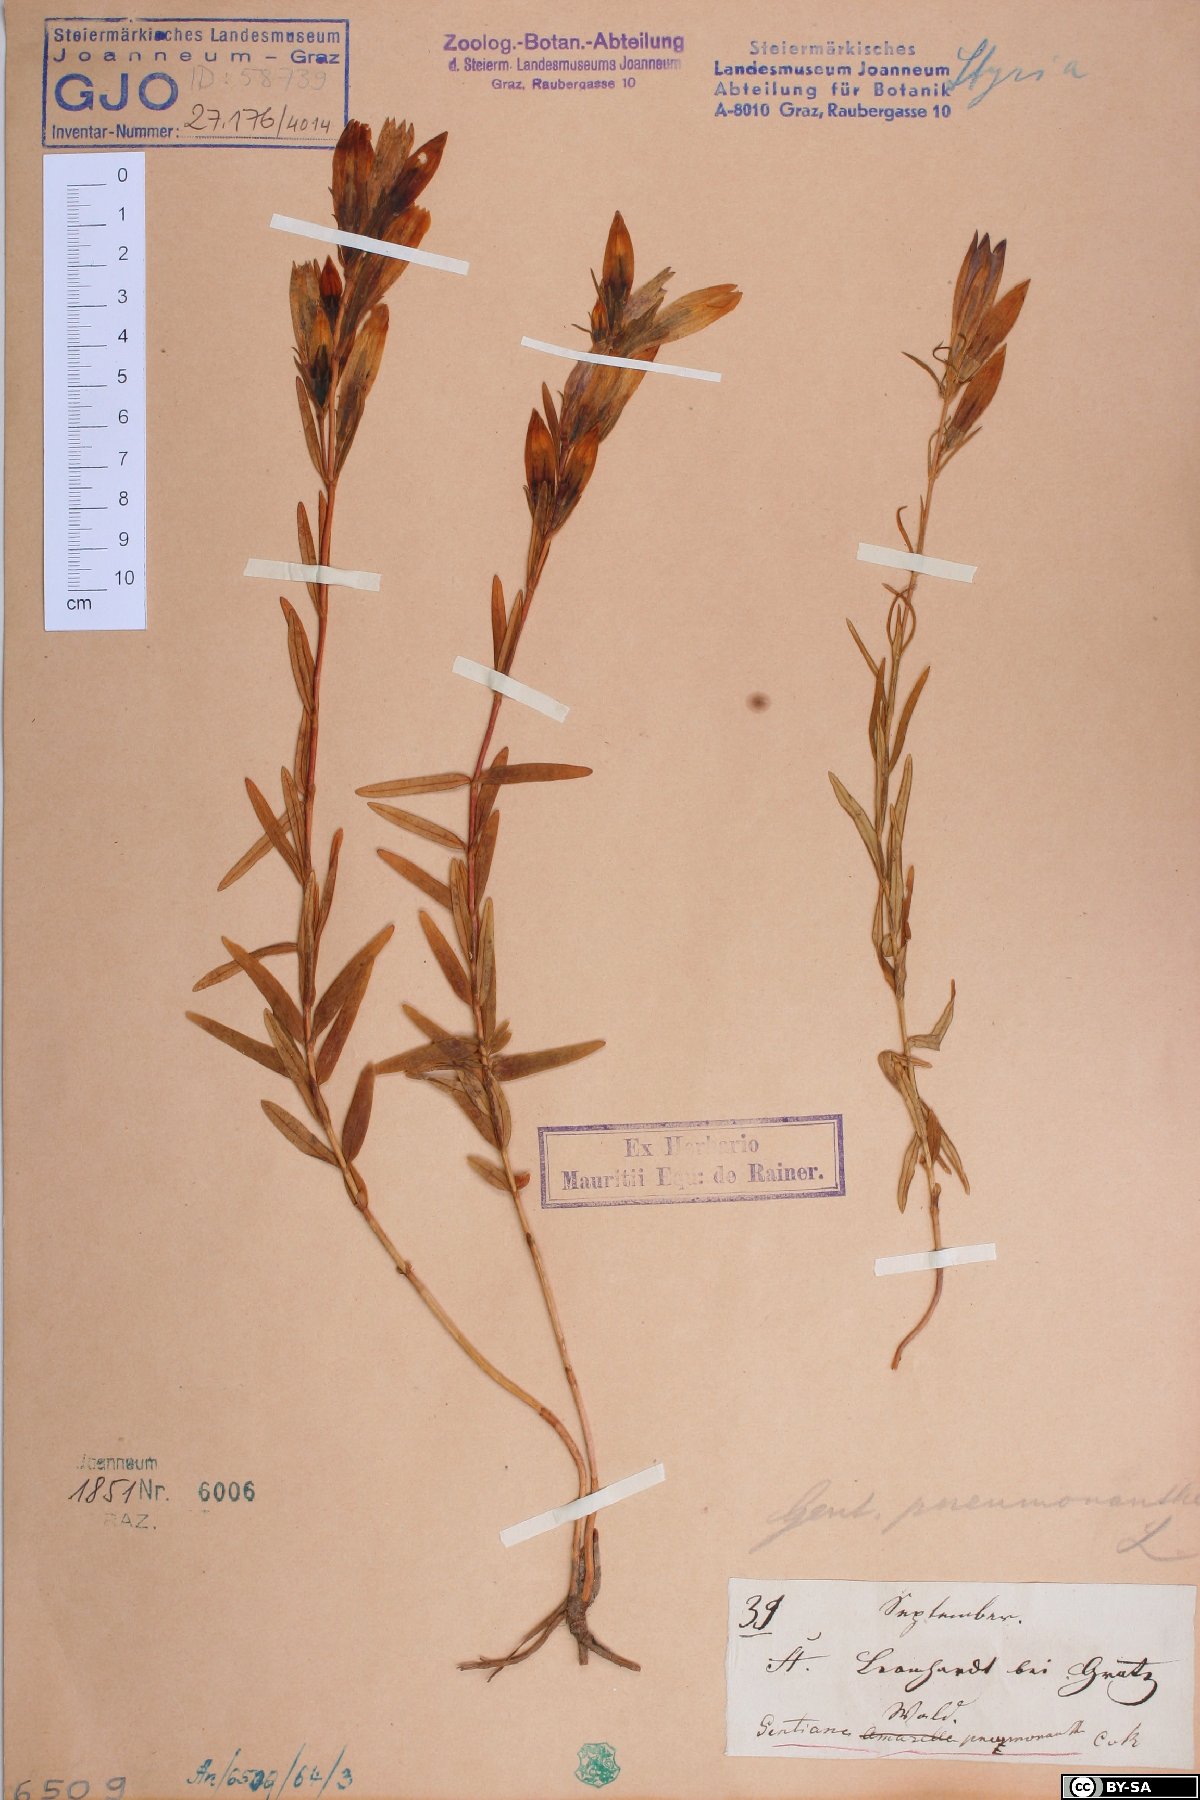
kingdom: Plantae
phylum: Tracheophyta
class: Magnoliopsida
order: Gentianales
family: Gentianaceae
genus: Gentiana
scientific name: Gentiana pneumonanthe
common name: Marsh gentian
